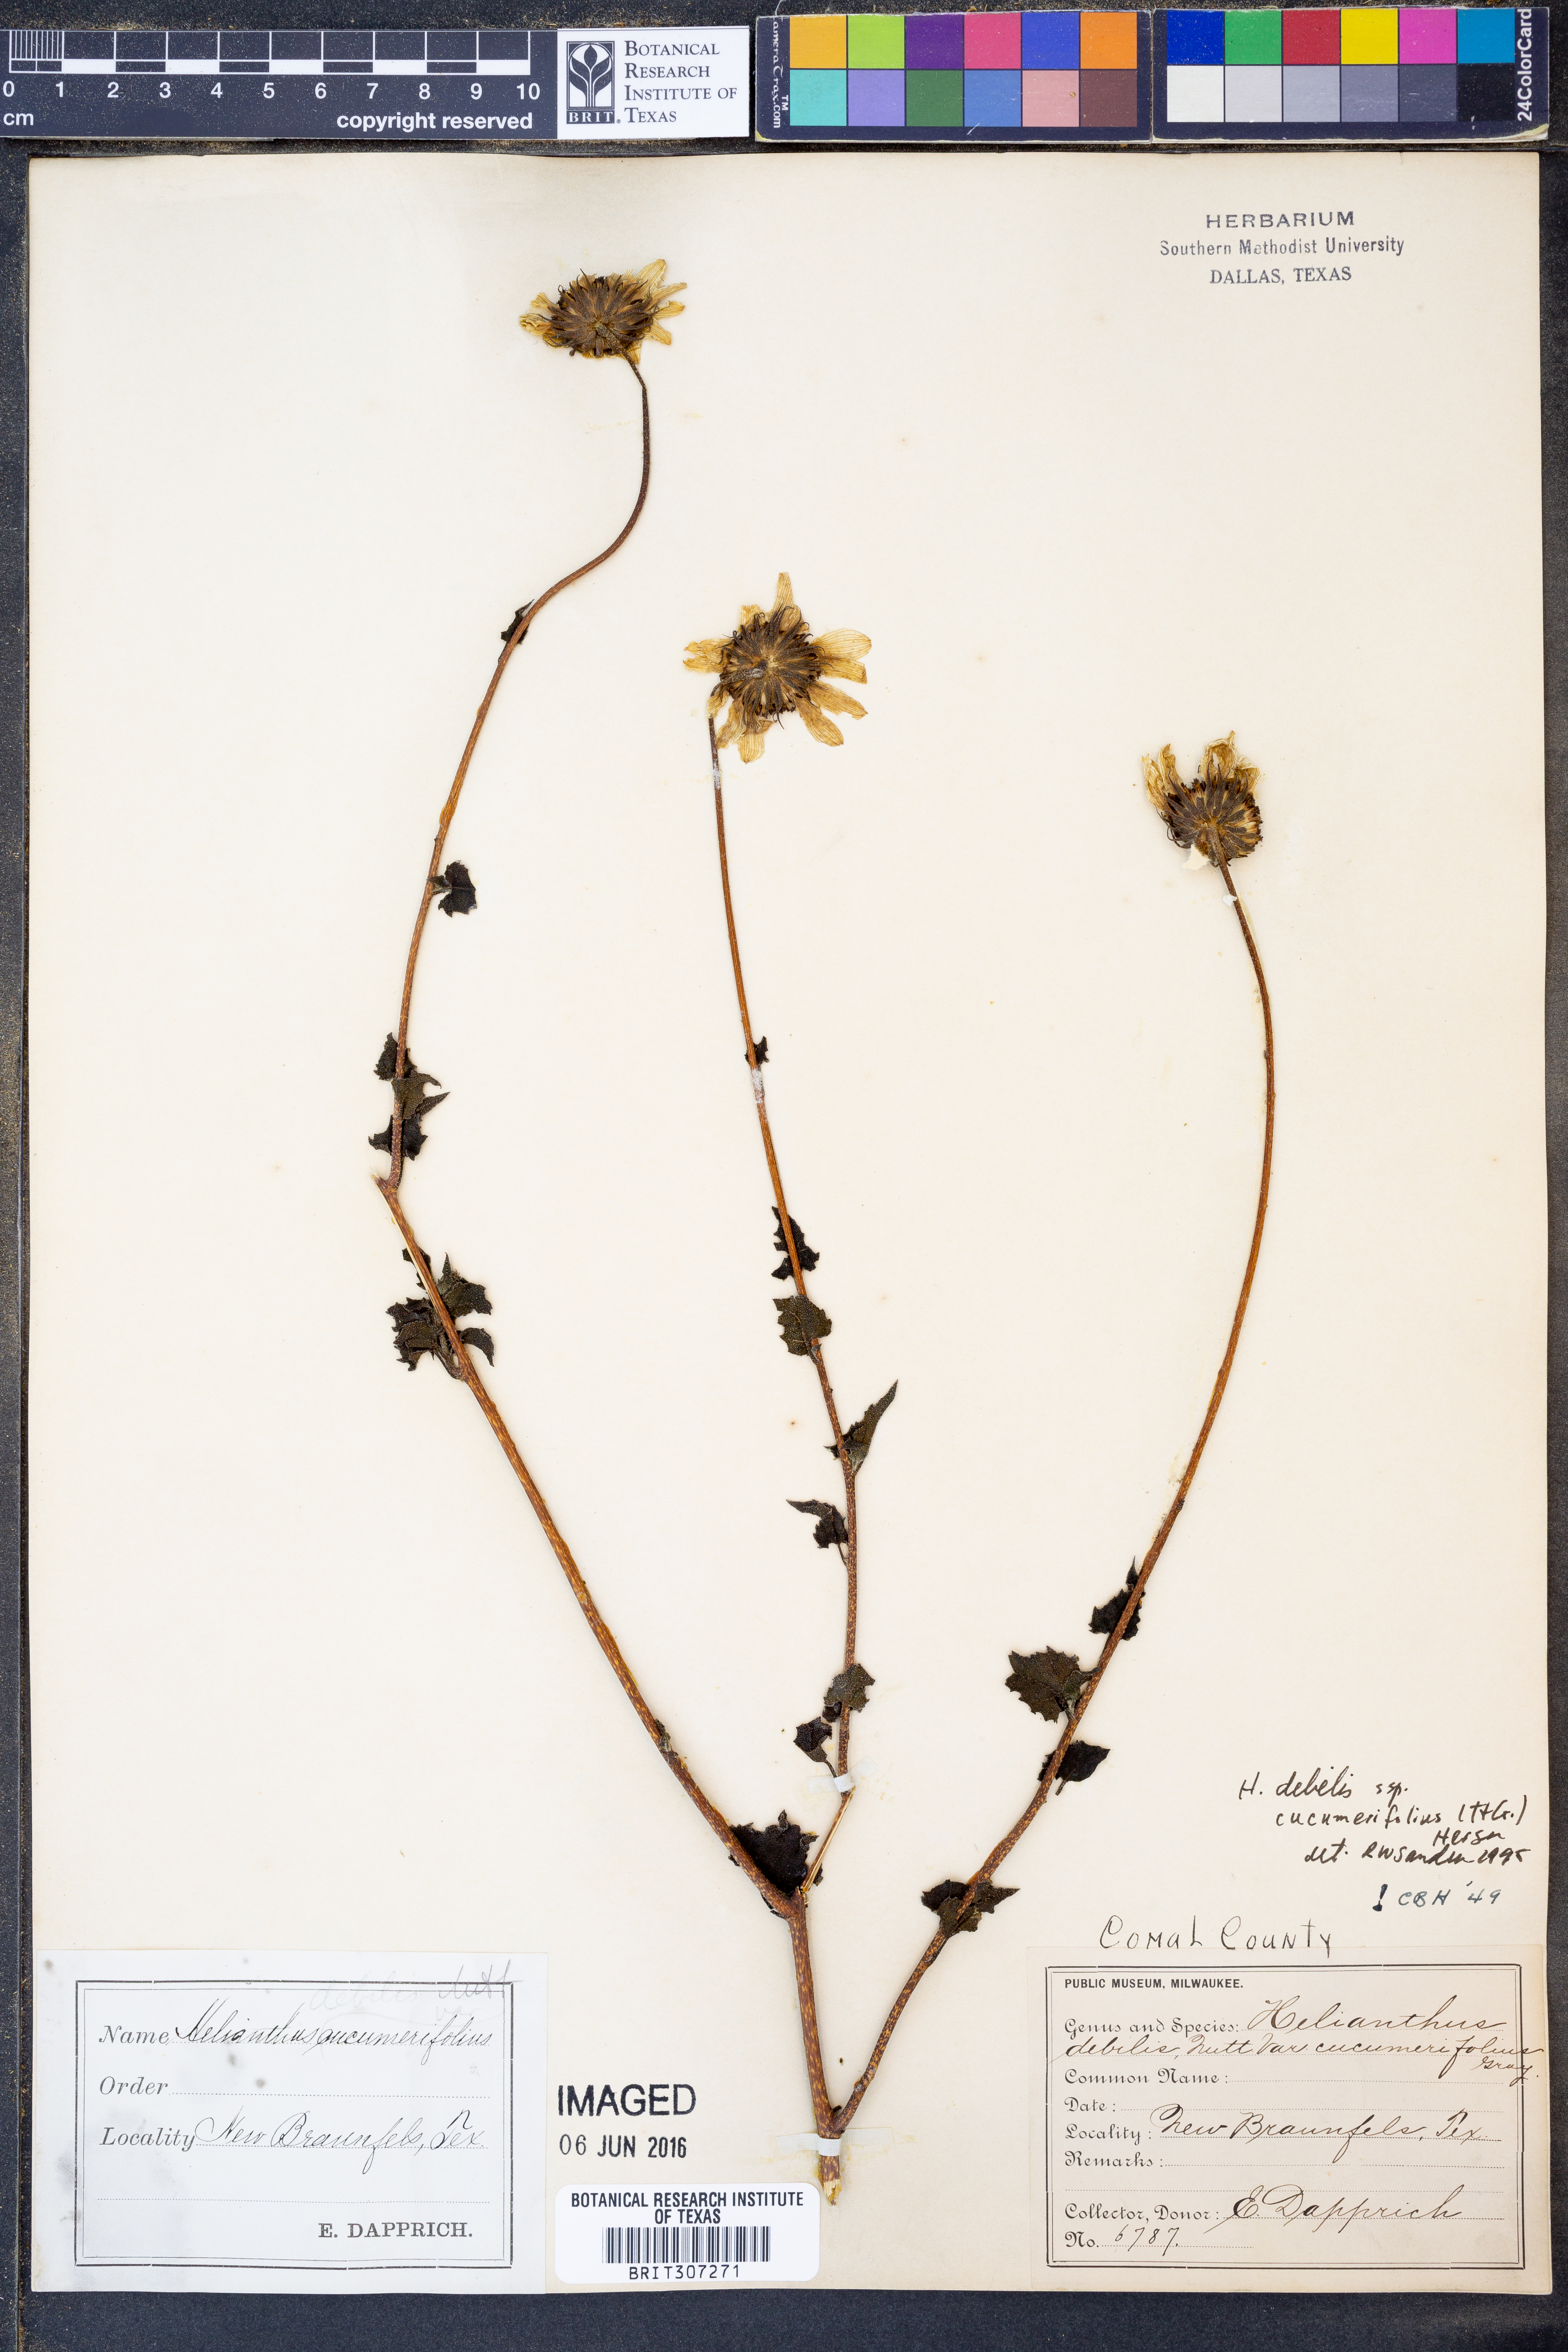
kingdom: Plantae
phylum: Tracheophyta
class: Magnoliopsida
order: Asterales
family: Asteraceae
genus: Helianthus
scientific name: Helianthus debilis
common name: Weak sunflower
